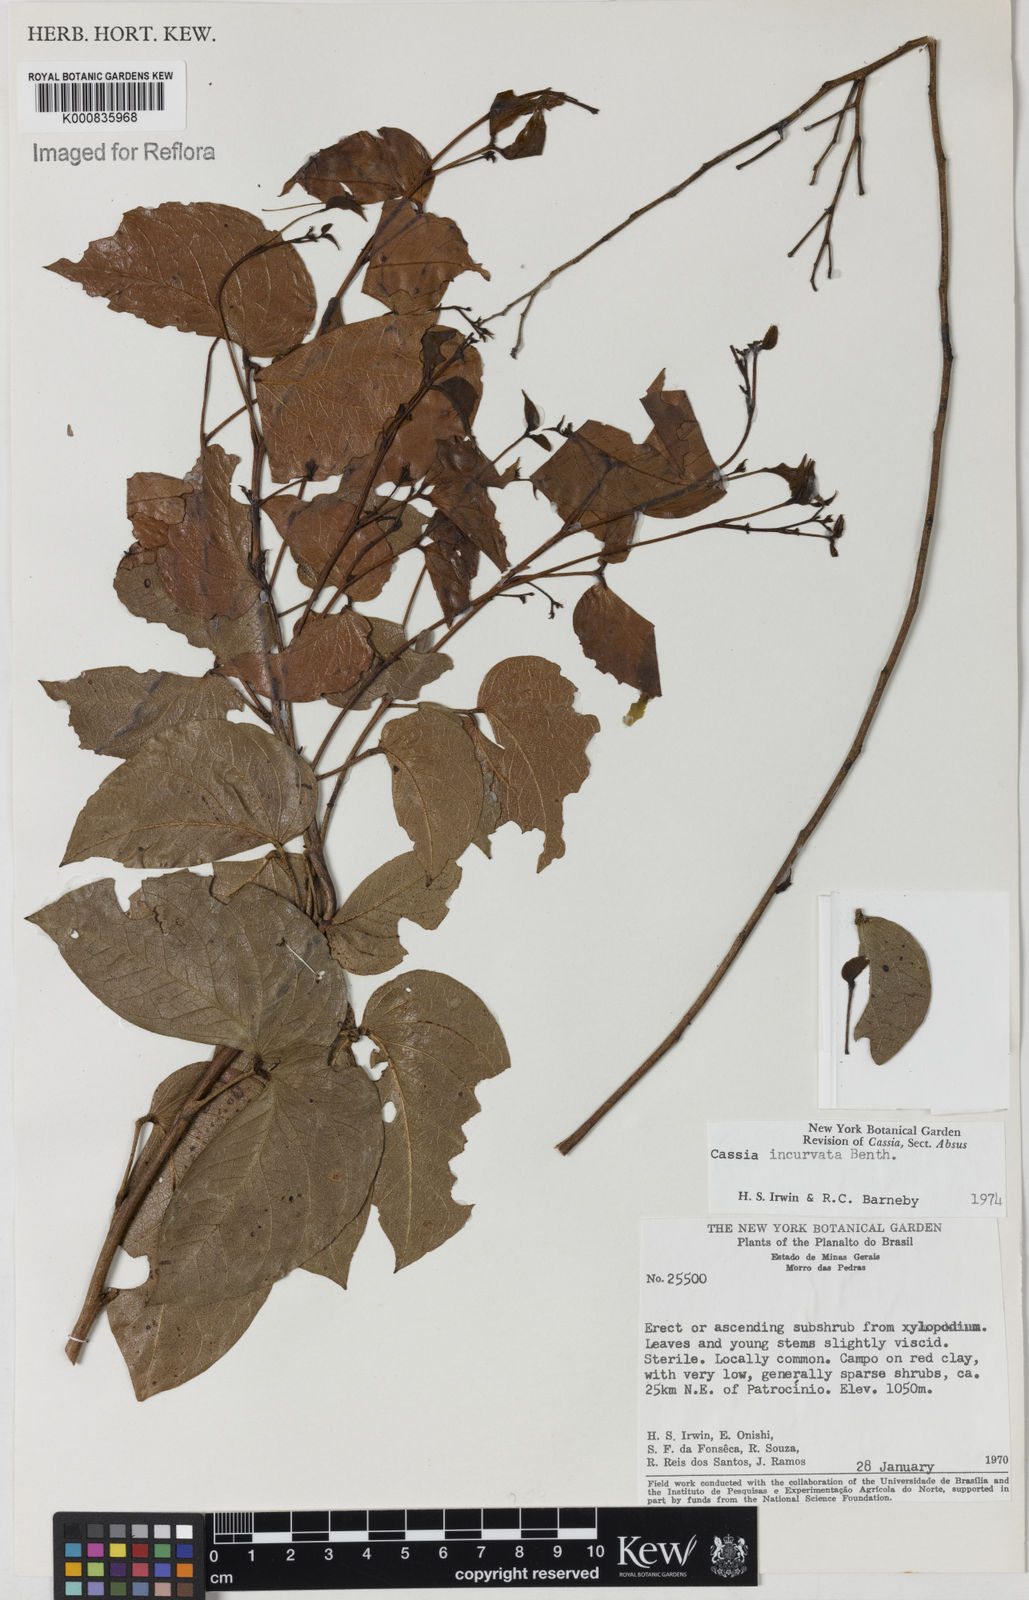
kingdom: Plantae
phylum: Tracheophyta
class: Magnoliopsida
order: Fabales
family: Fabaceae
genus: Chamaecrista
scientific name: Chamaecrista incurvata
